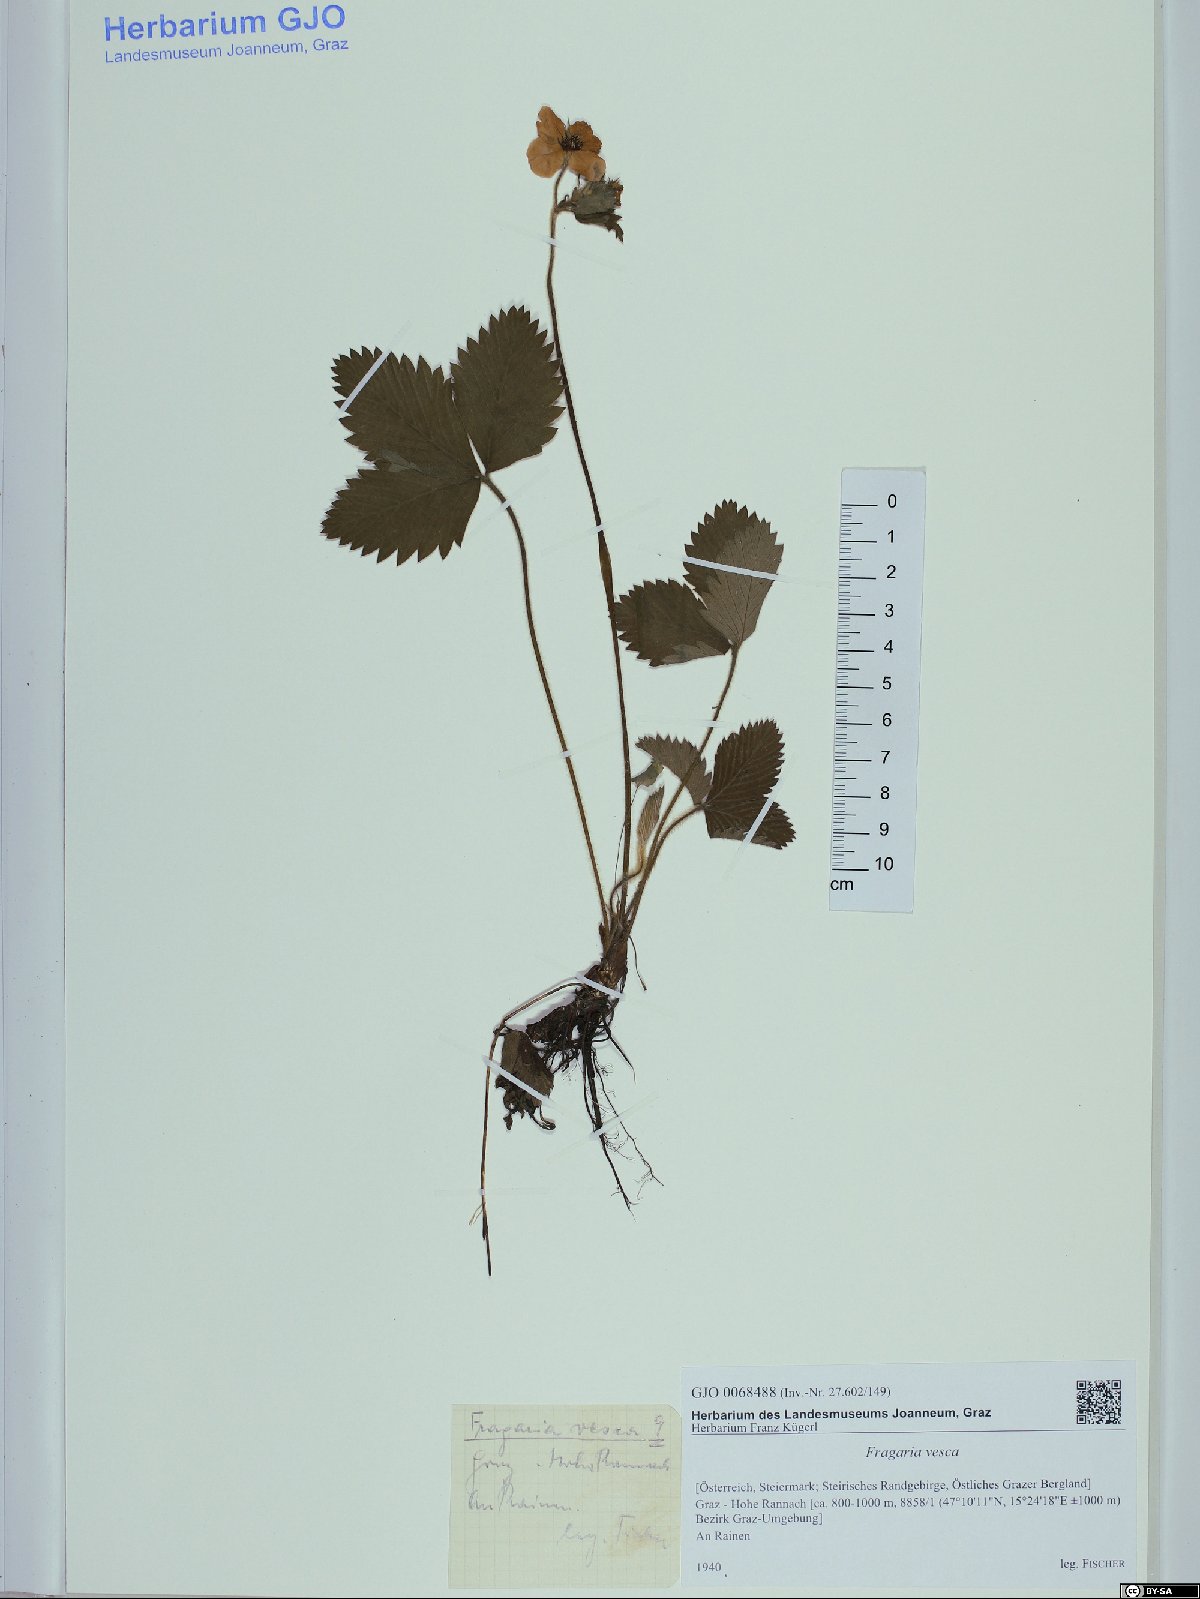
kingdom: Plantae
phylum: Tracheophyta
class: Magnoliopsida
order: Rosales
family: Rosaceae
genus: Fragaria
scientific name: Fragaria vesca
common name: Wild strawberry
